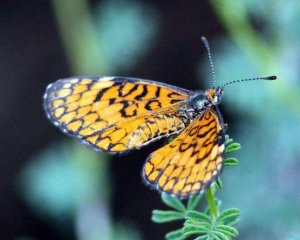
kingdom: Animalia
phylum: Arthropoda
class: Insecta
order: Lepidoptera
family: Nymphalidae
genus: Dymasia
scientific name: Dymasia dymas
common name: Tiny Checkerspot
